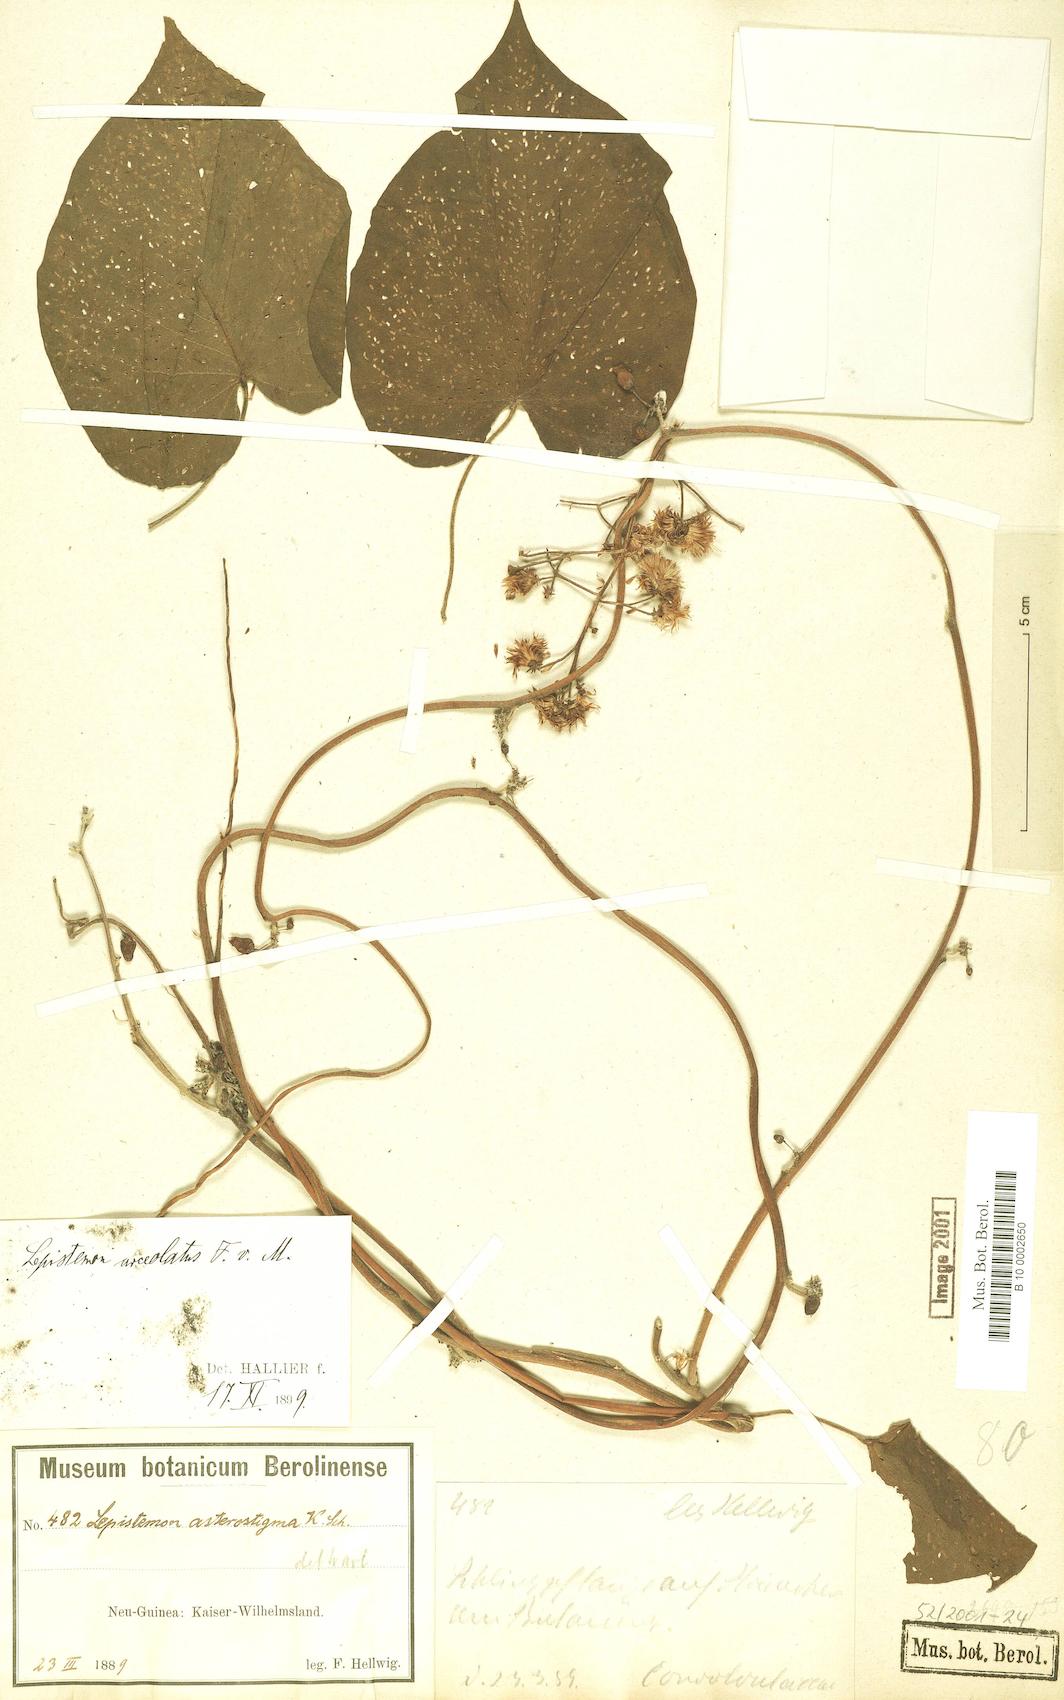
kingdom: Plantae
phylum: Tracheophyta
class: Magnoliopsida
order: Solanales
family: Convolvulaceae
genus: Lepistemon
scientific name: Lepistemon urceolatus
